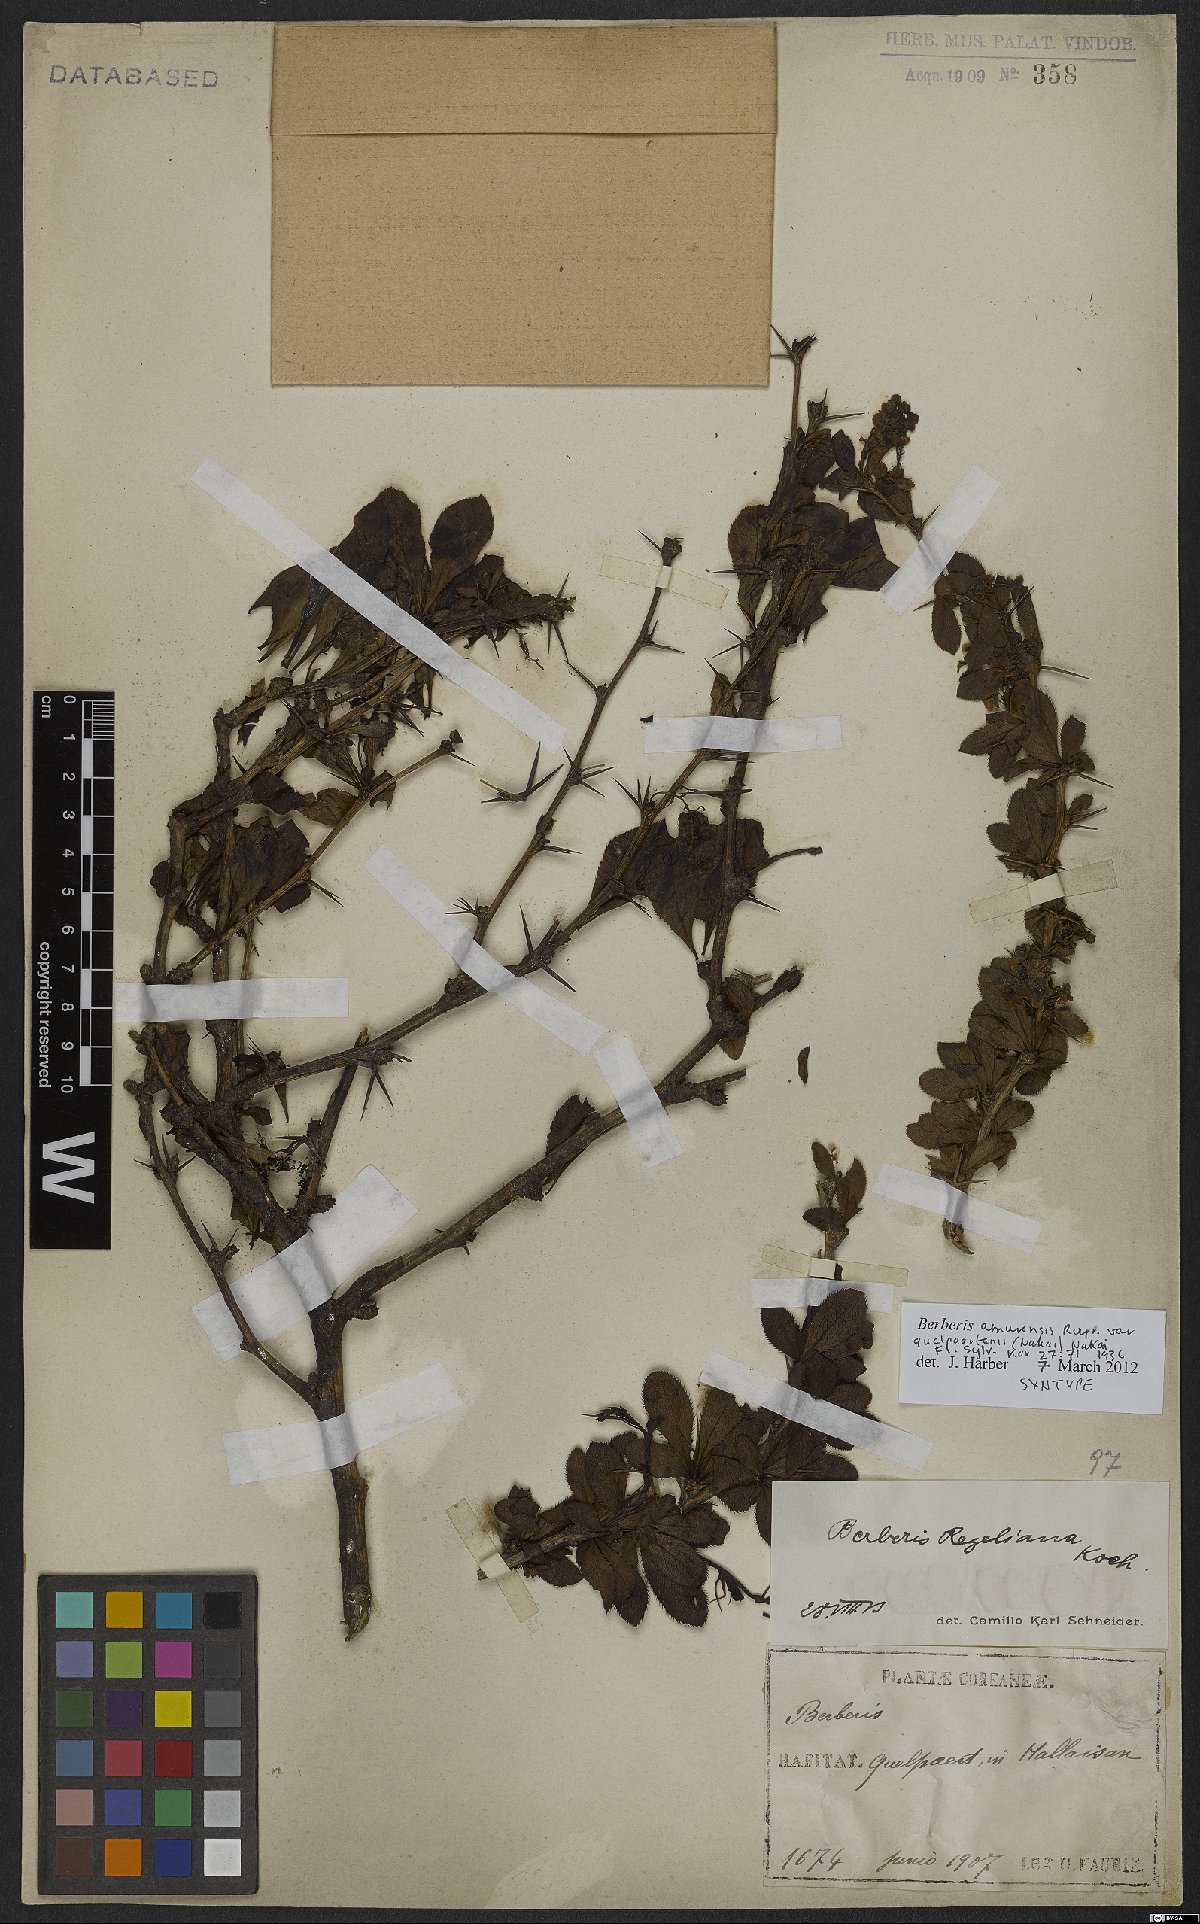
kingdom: Plantae
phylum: Tracheophyta
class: Magnoliopsida
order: Ranunculales
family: Berberidaceae
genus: Berberis
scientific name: Berberis amurensis
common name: Amur barberry
